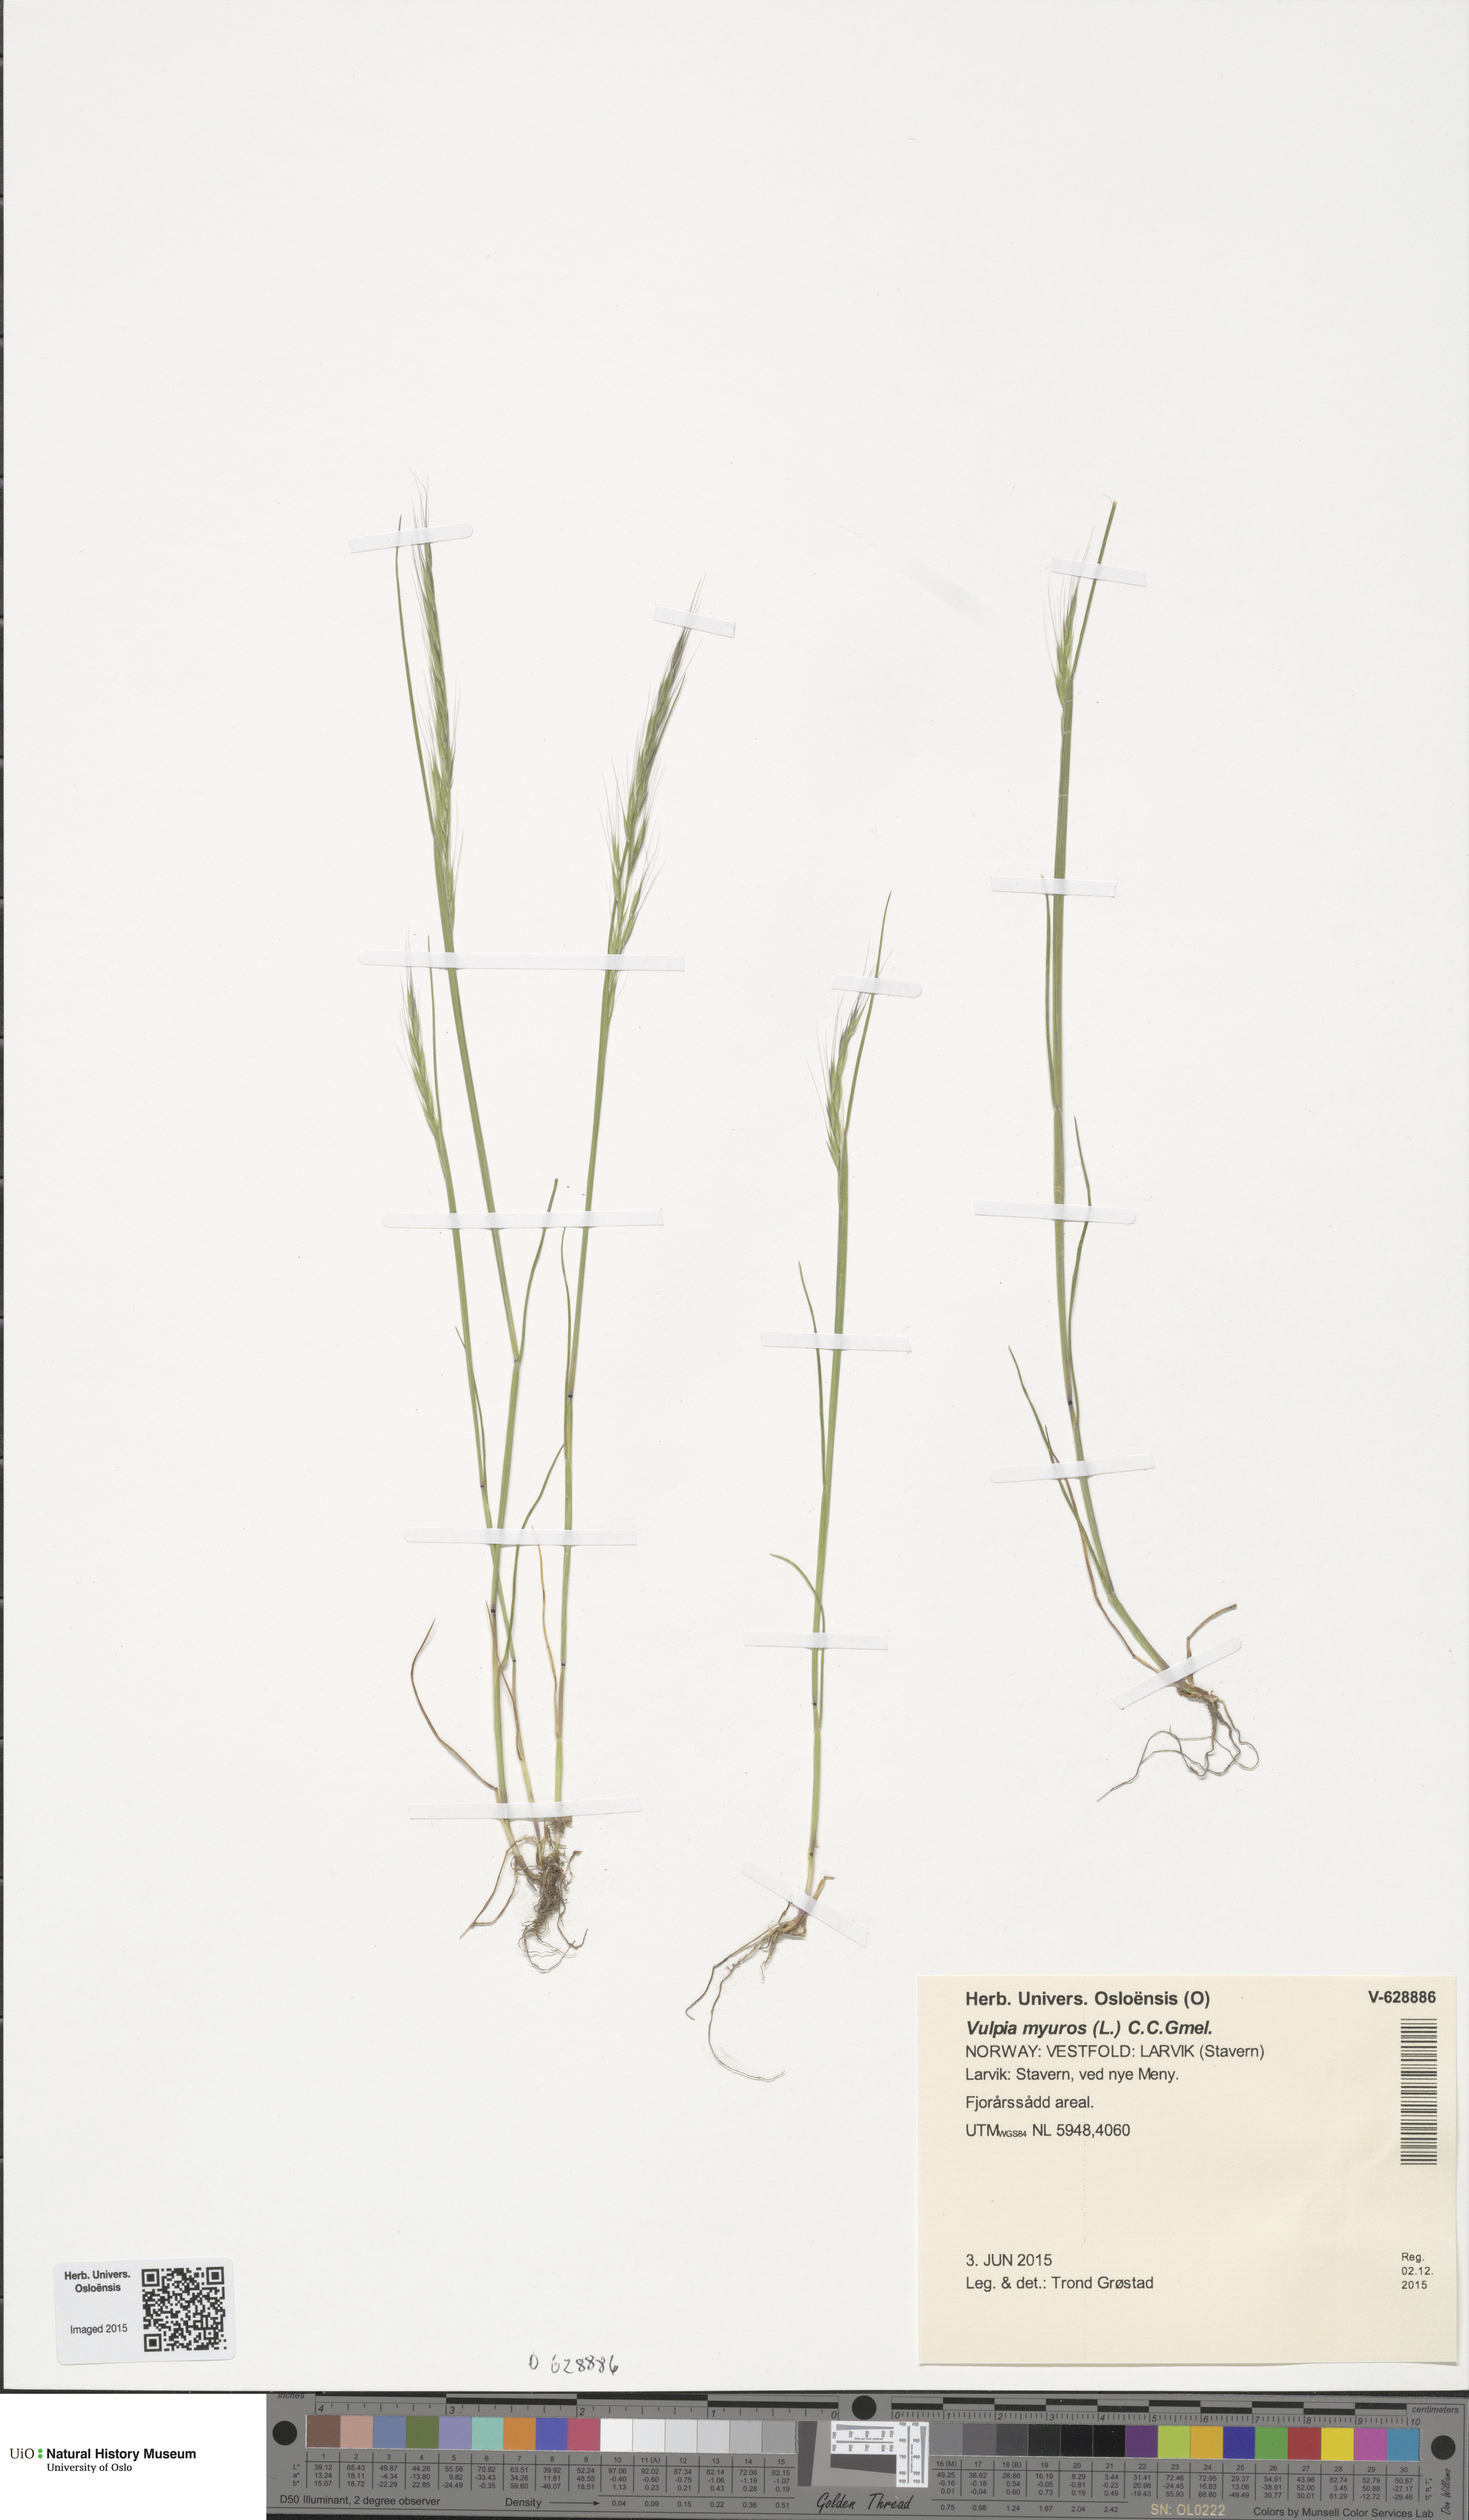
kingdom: Plantae
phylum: Tracheophyta
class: Liliopsida
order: Poales
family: Poaceae
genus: Festuca
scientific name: Festuca myuros
